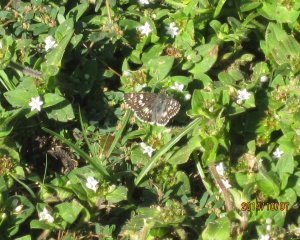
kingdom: Animalia
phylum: Arthropoda
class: Insecta
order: Lepidoptera
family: Hesperiidae
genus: Pyrgus
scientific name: Pyrgus communis
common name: Common Checkered-Skipper
